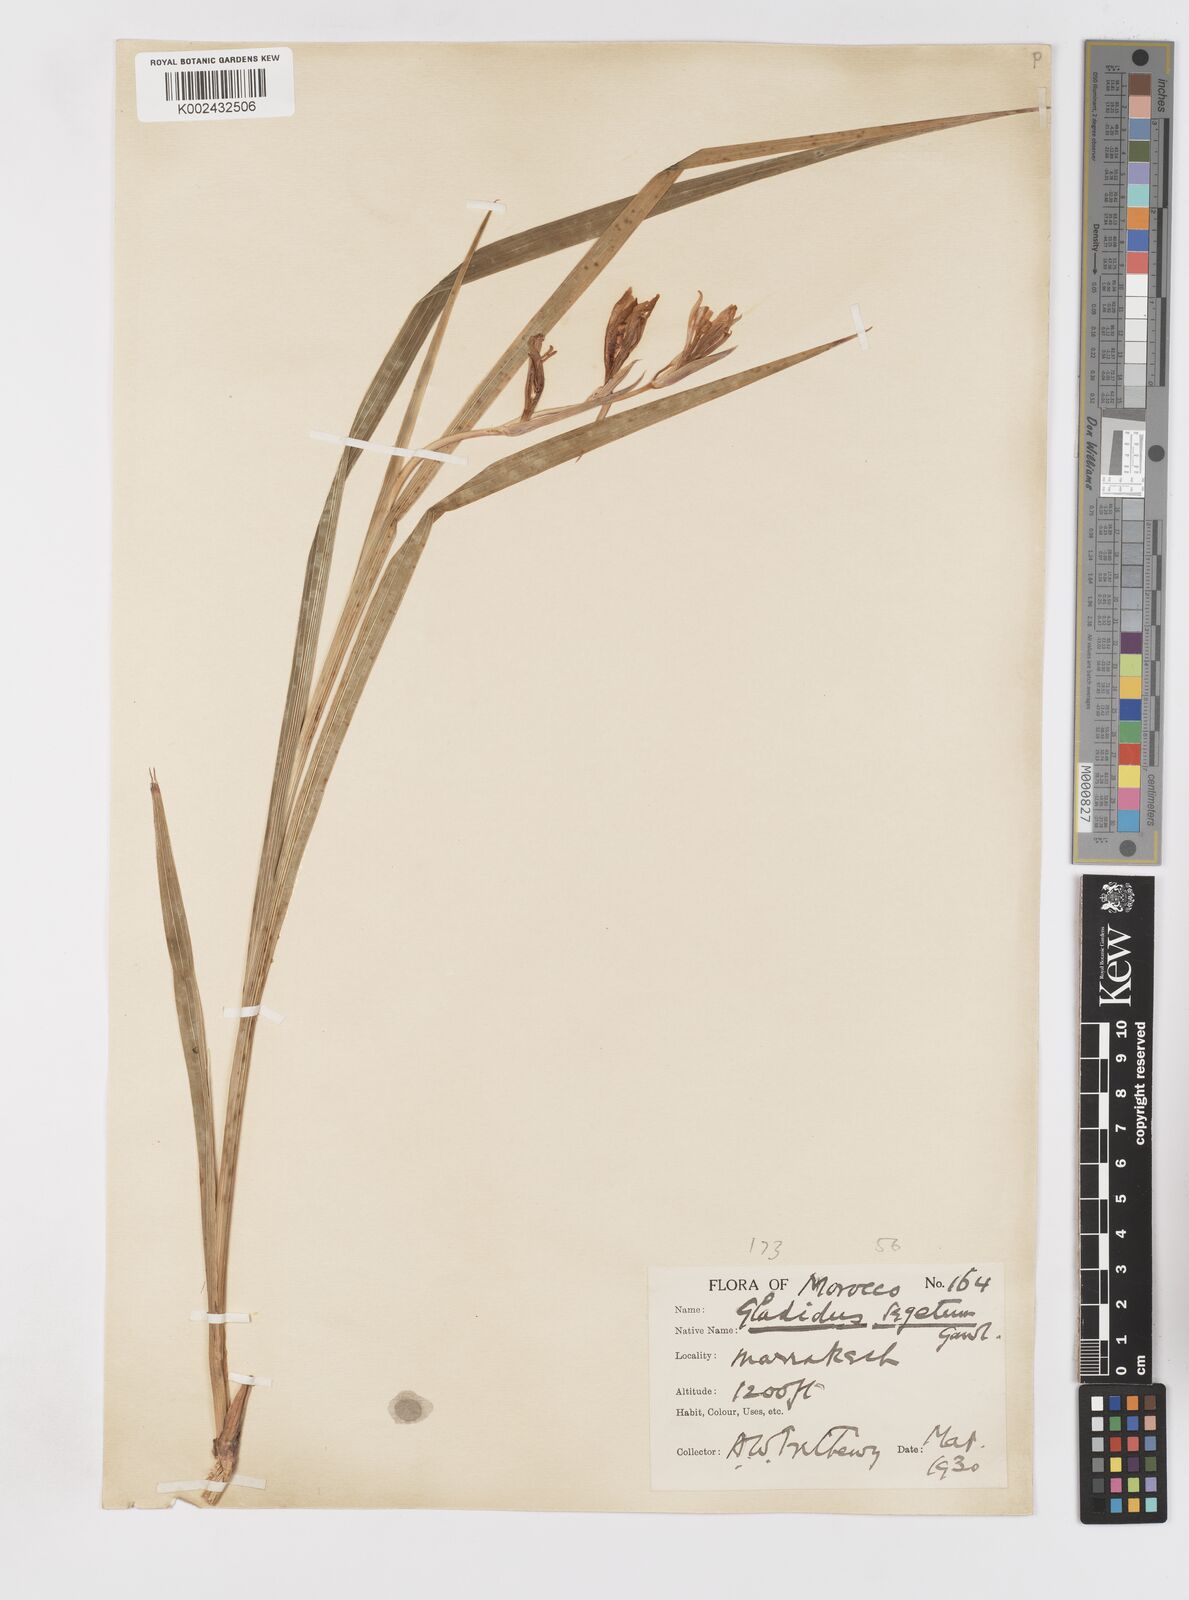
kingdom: Plantae
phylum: Tracheophyta
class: Liliopsida
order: Asparagales
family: Iridaceae
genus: Gladiolus
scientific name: Gladiolus italicus
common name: Field gladiolus
